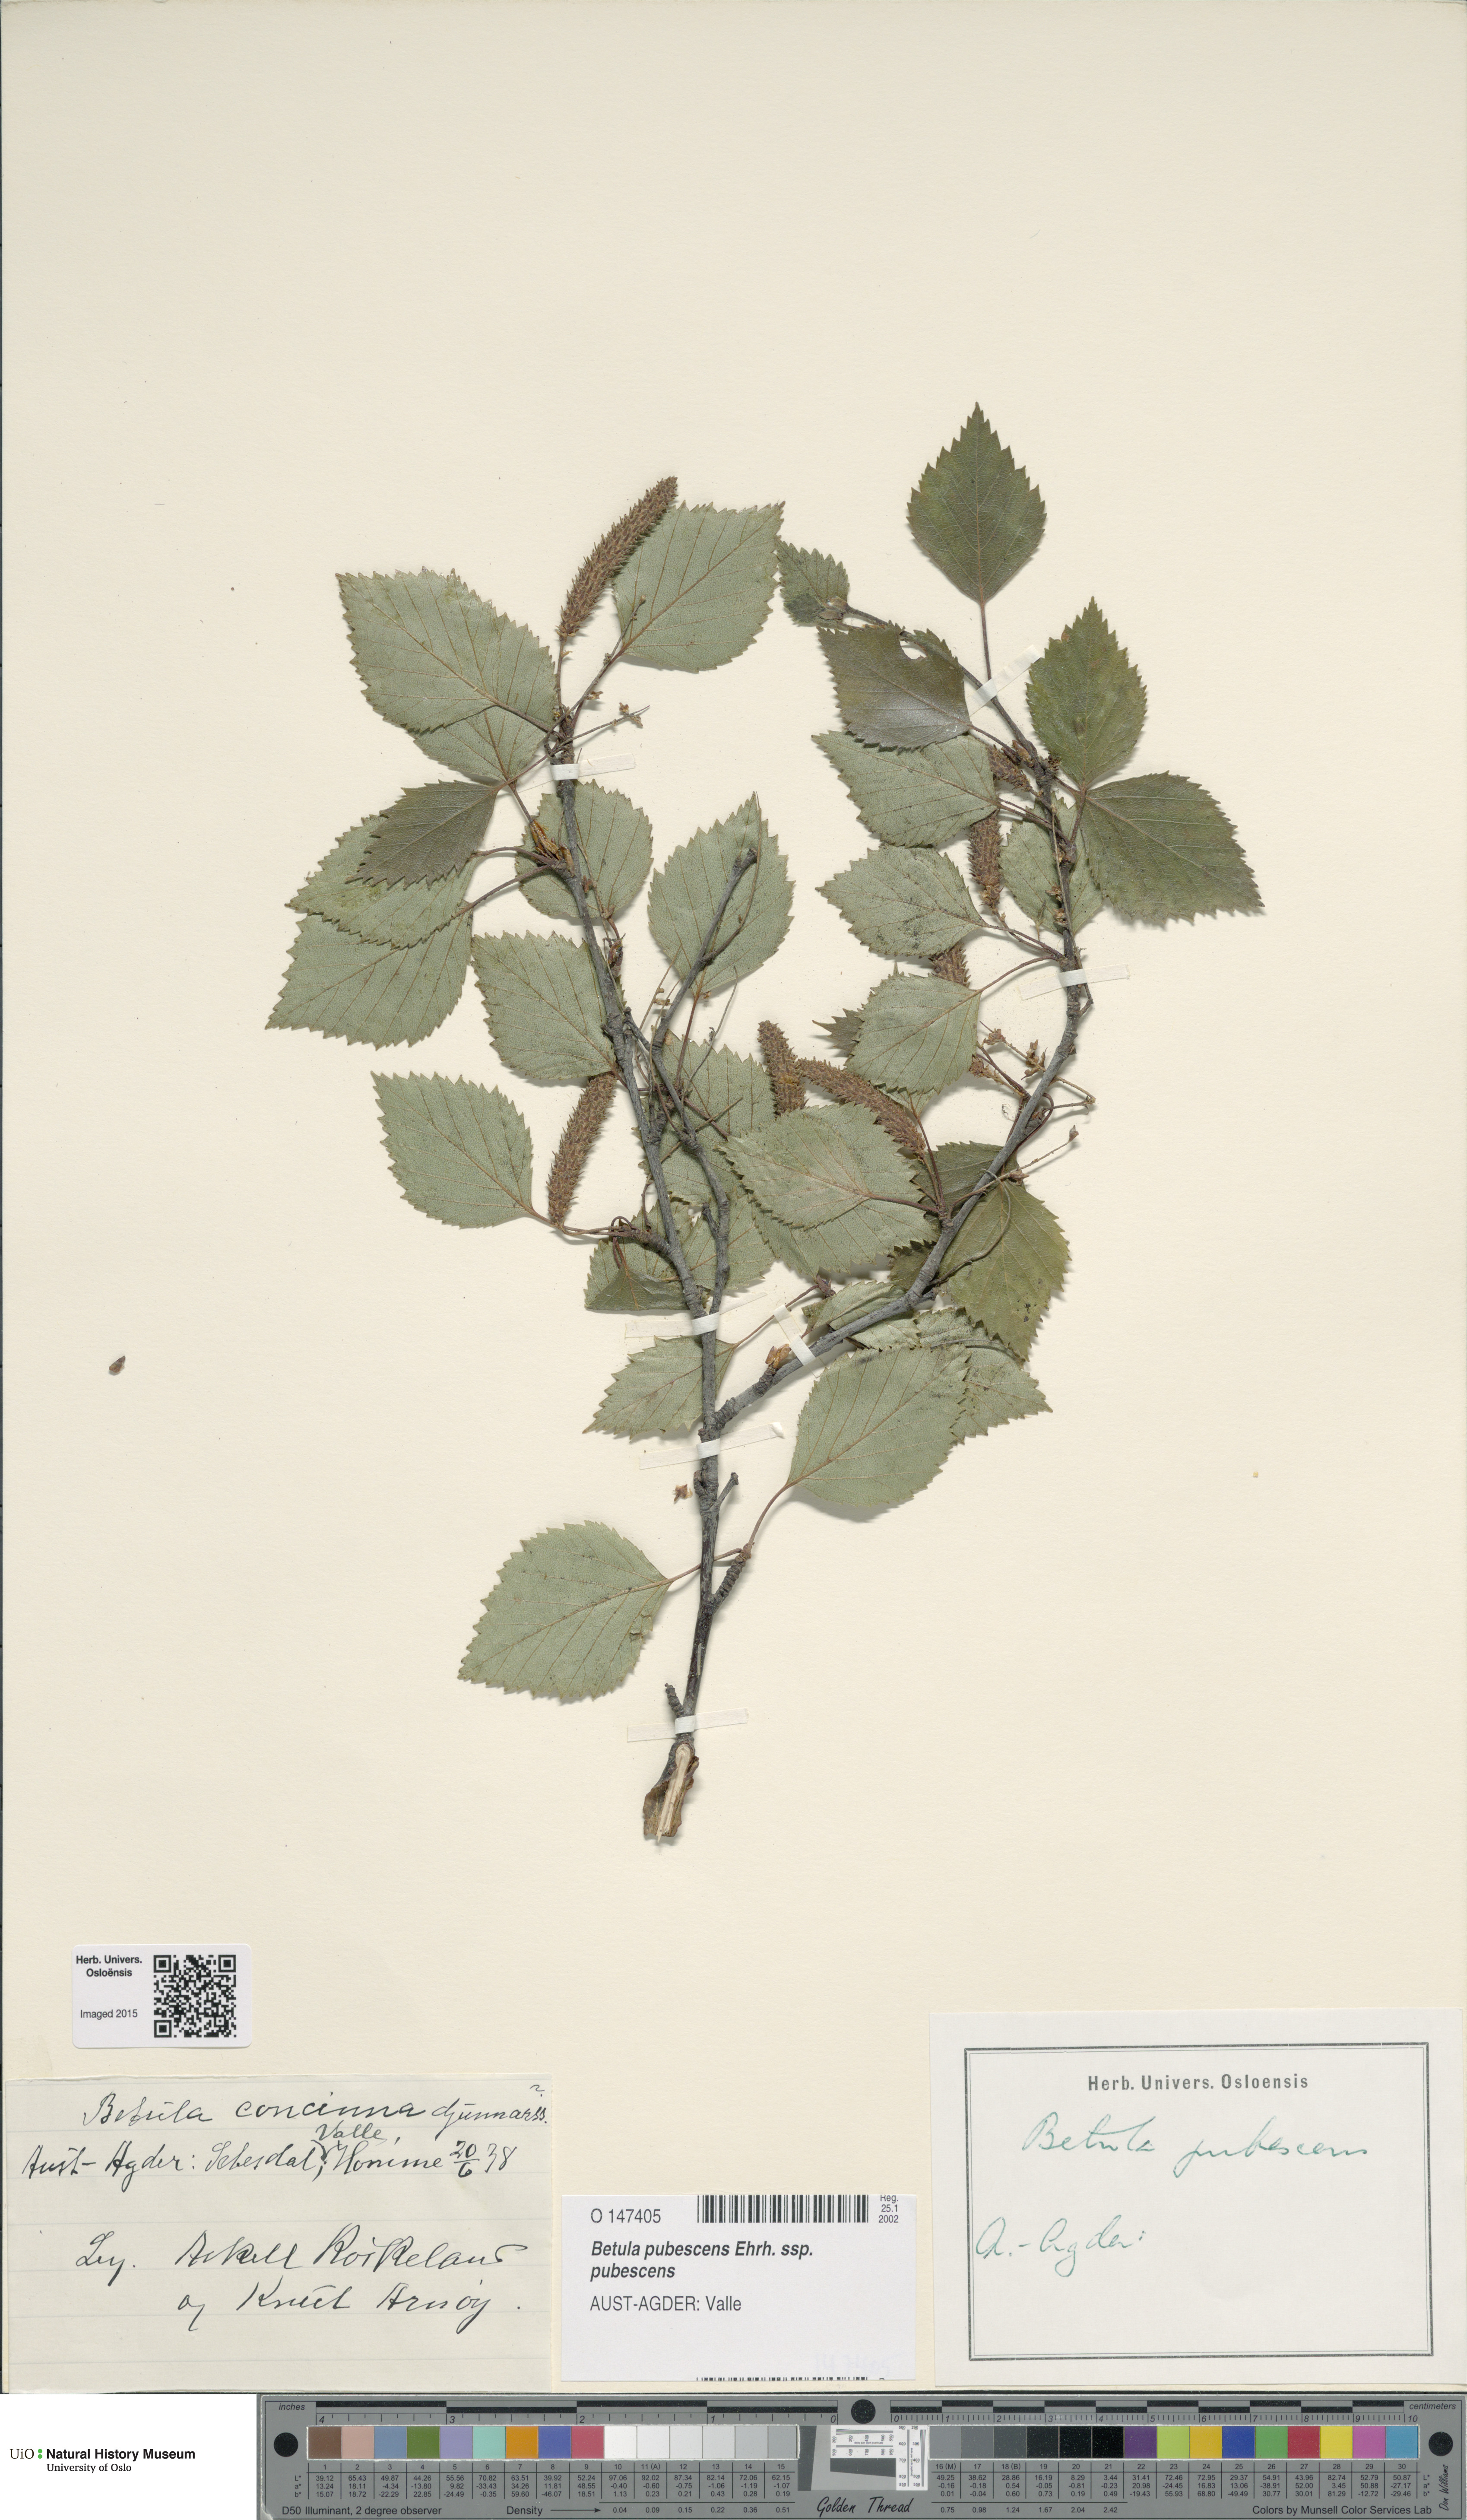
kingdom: Plantae
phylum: Tracheophyta
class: Magnoliopsida
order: Fagales
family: Betulaceae
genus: Betula
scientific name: Betula pubescens
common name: Downy birch
